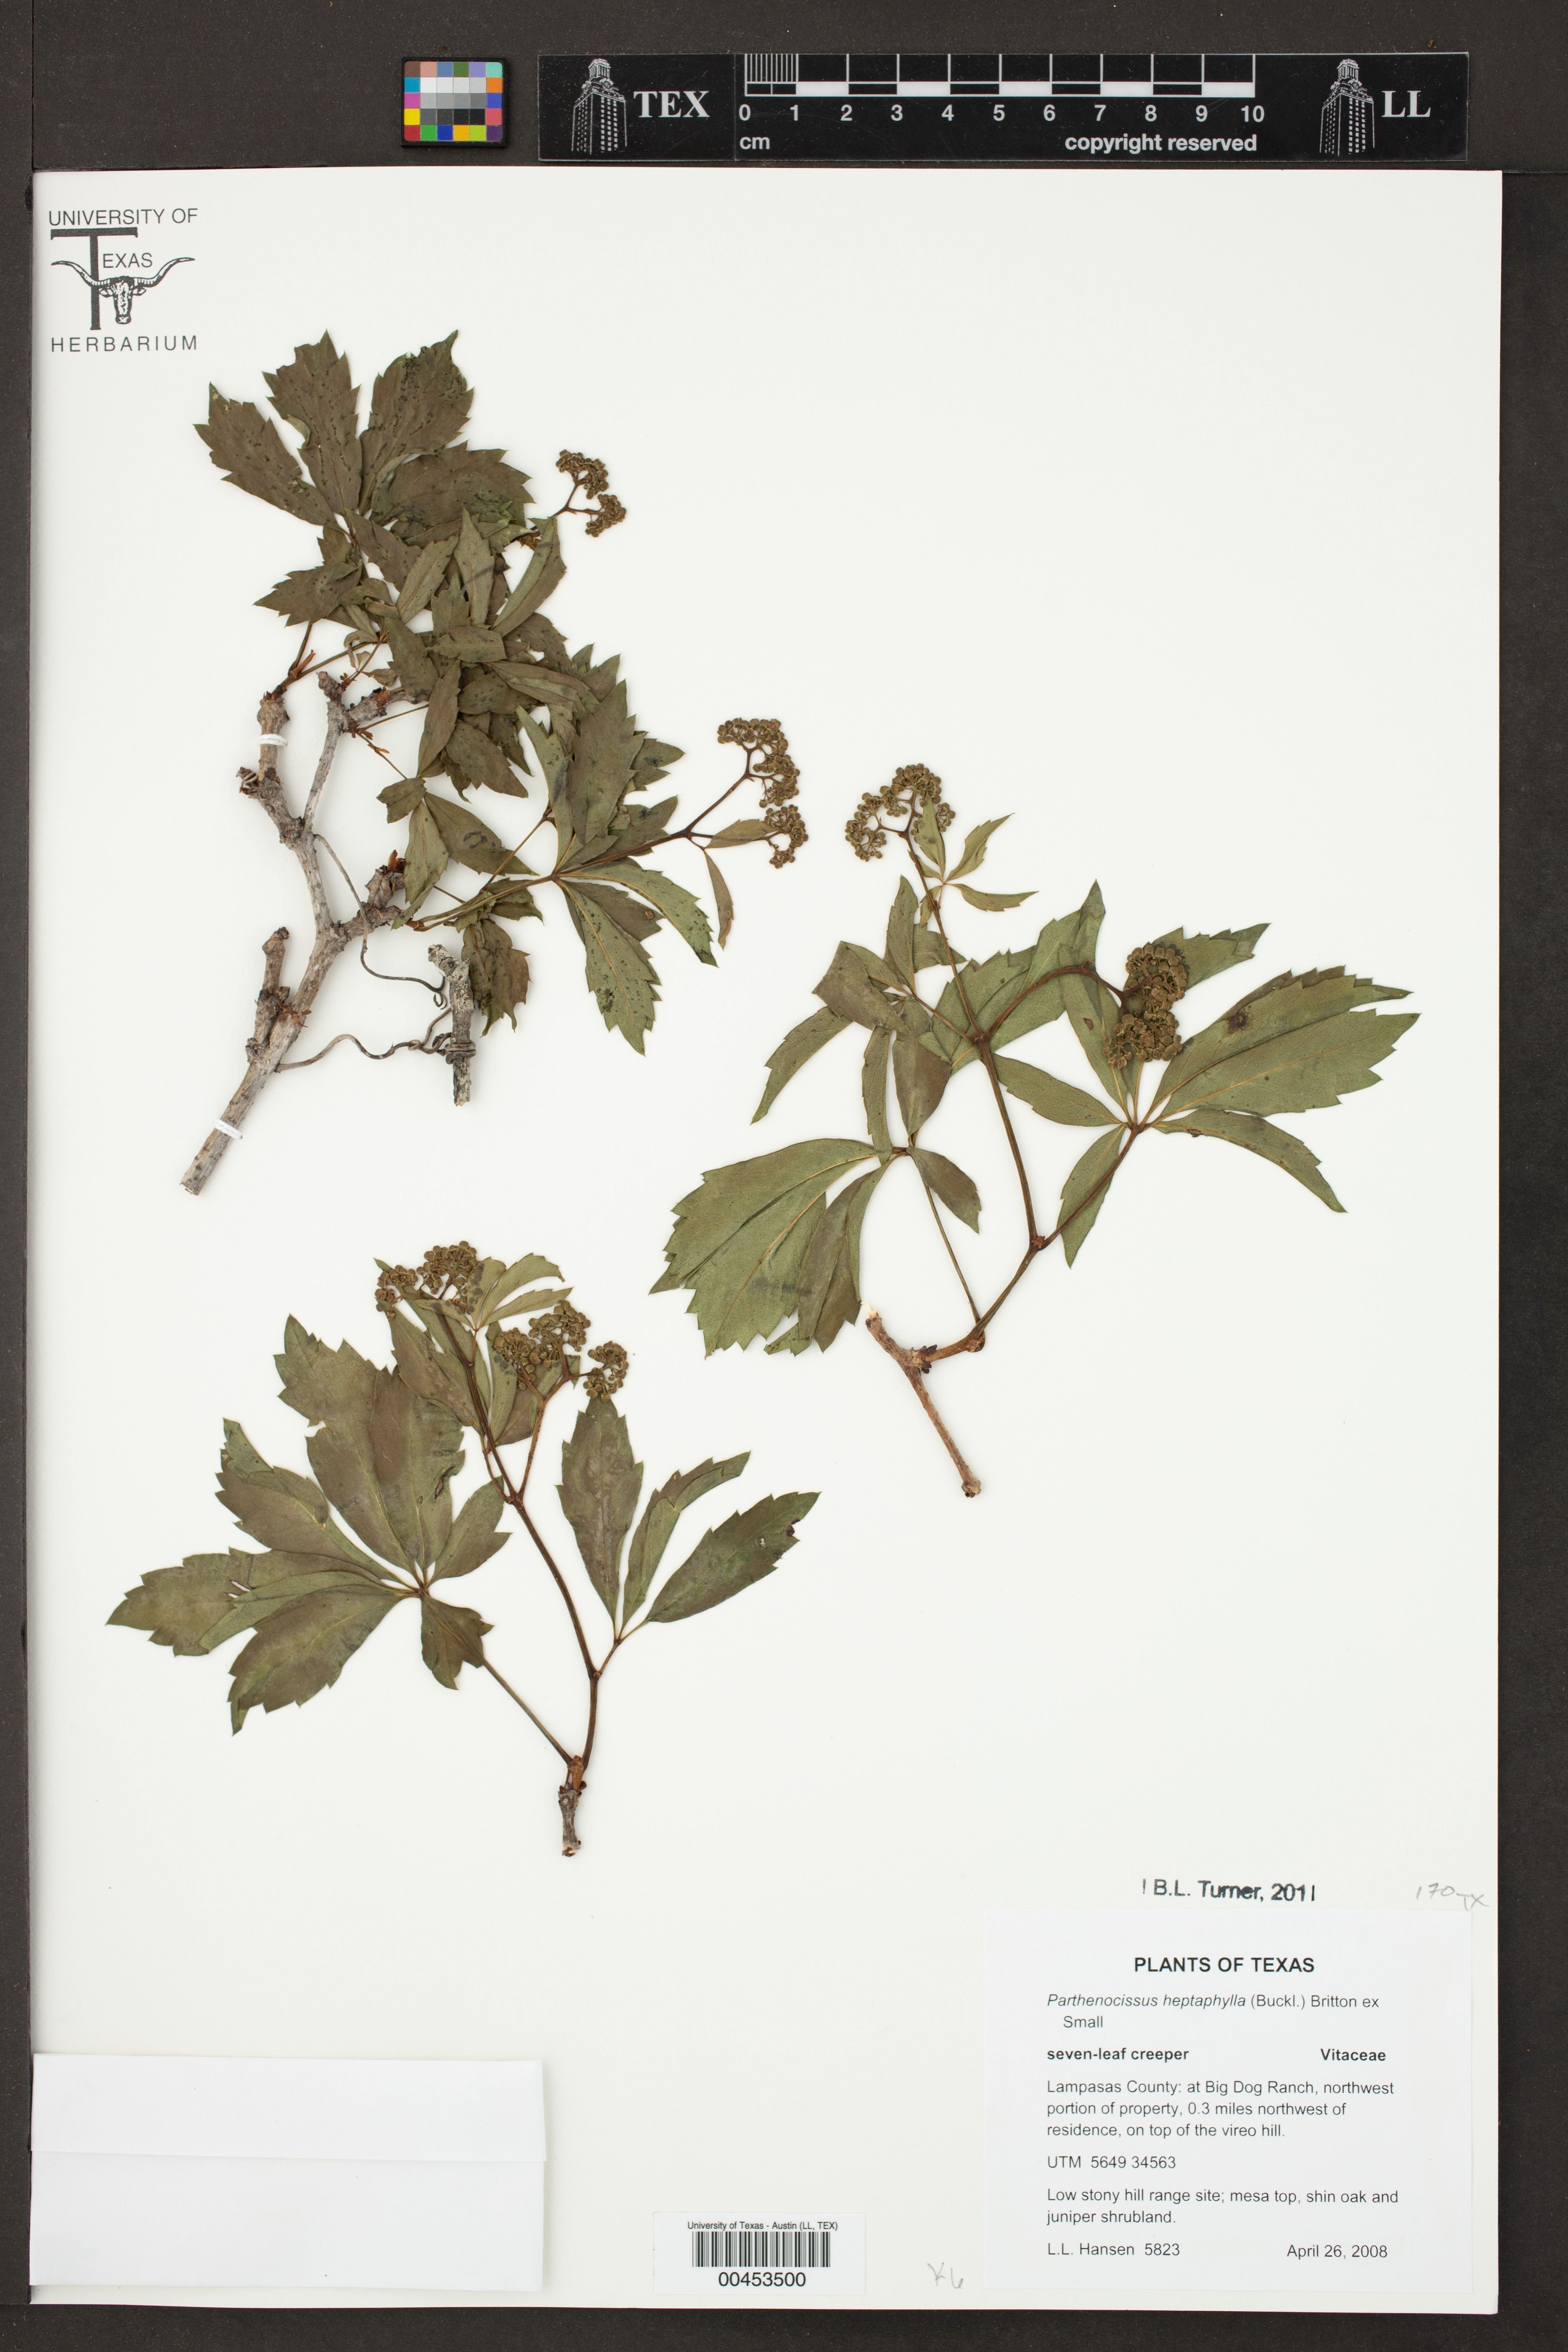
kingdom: Plantae
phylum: Tracheophyta
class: Magnoliopsida
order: Vitales
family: Vitaceae
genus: Parthenocissus
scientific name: Parthenocissus heptaphylla
